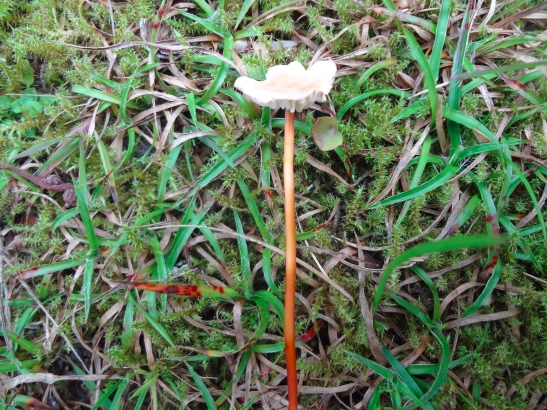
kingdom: Fungi
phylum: Basidiomycota
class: Agaricomycetes
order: Agaricales
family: Omphalotaceae
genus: Mycetinis
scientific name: Mycetinis scorodonius
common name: lille løghat
